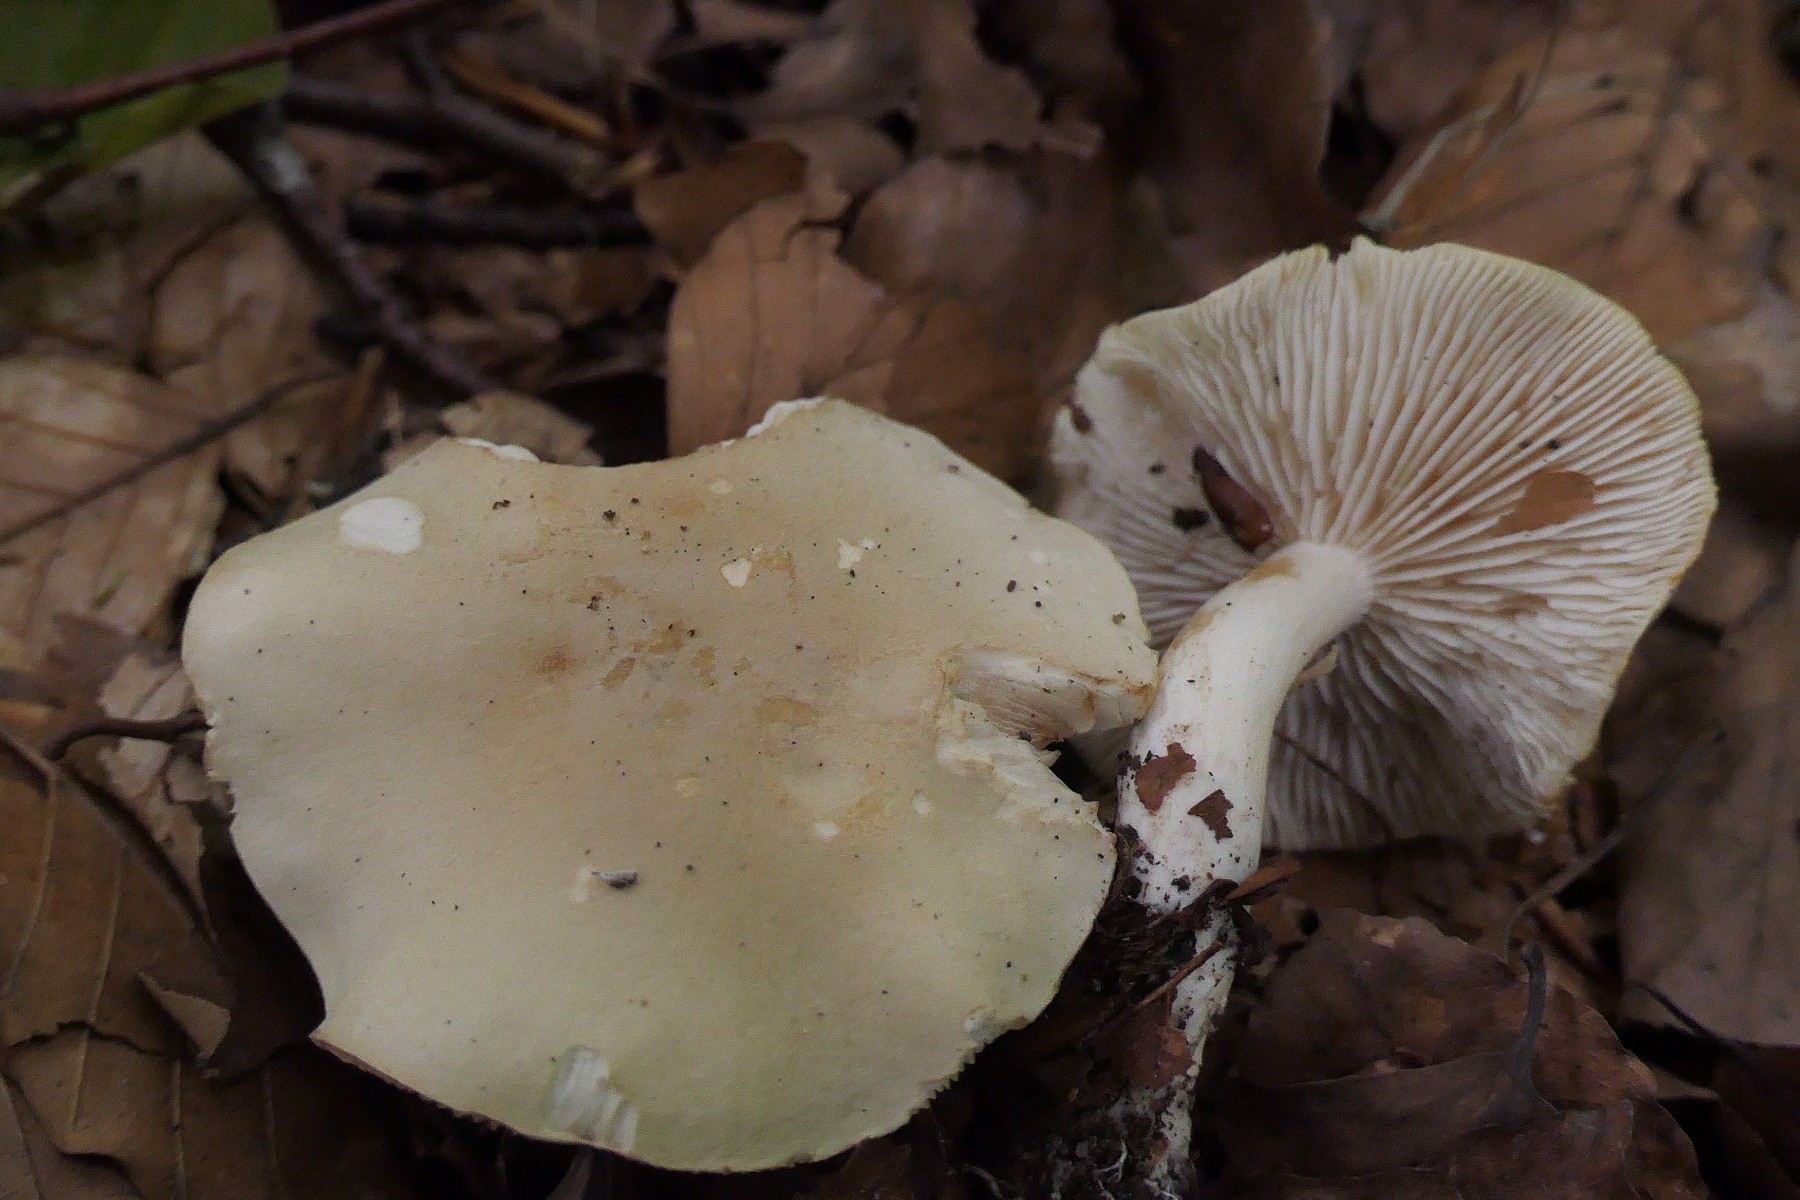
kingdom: Fungi
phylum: Basidiomycota
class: Agaricomycetes
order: Agaricales
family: Tricholomataceae
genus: Tricholoma
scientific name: Tricholoma lascivum
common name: stinkende ridderhat
